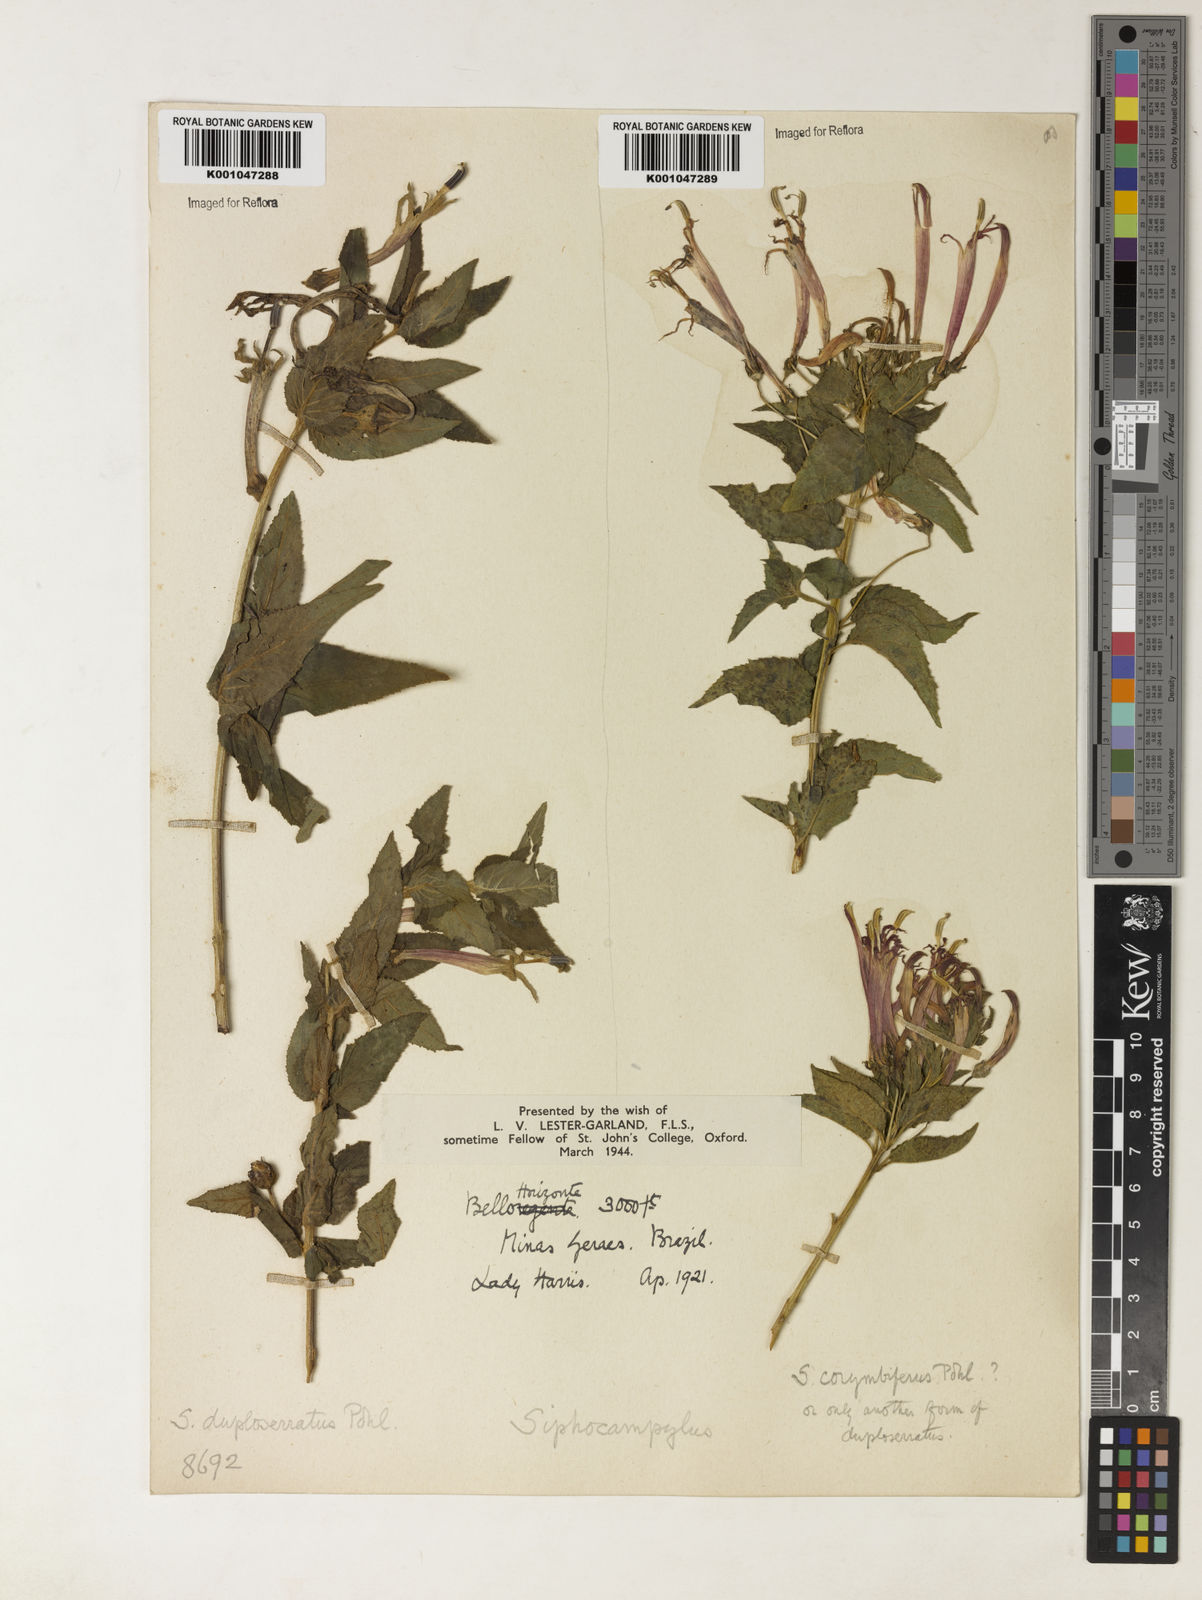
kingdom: Plantae
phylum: Tracheophyta
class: Magnoliopsida
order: Asterales
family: Campanulaceae
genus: Siphocampylus
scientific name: Siphocampylus duploserratus
